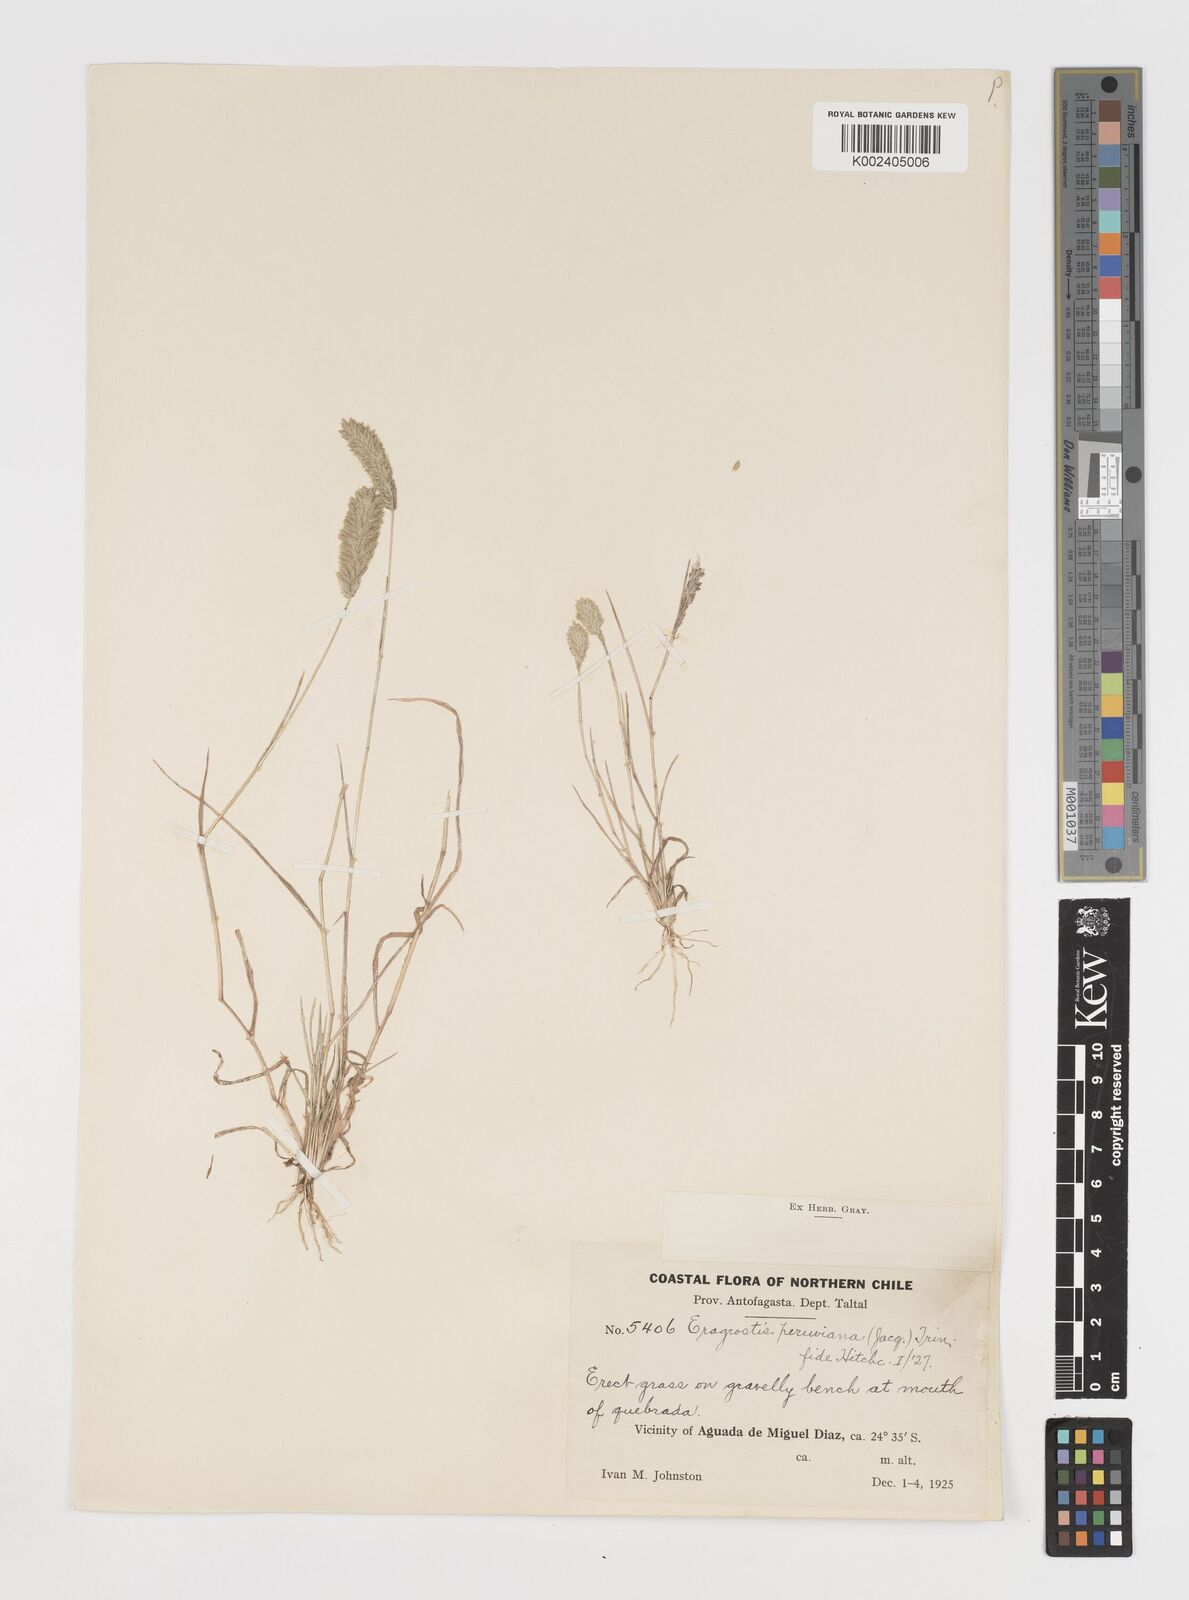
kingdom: Plantae
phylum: Tracheophyta
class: Liliopsida
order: Poales
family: Poaceae
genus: Eragrostis
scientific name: Eragrostis peruviana
